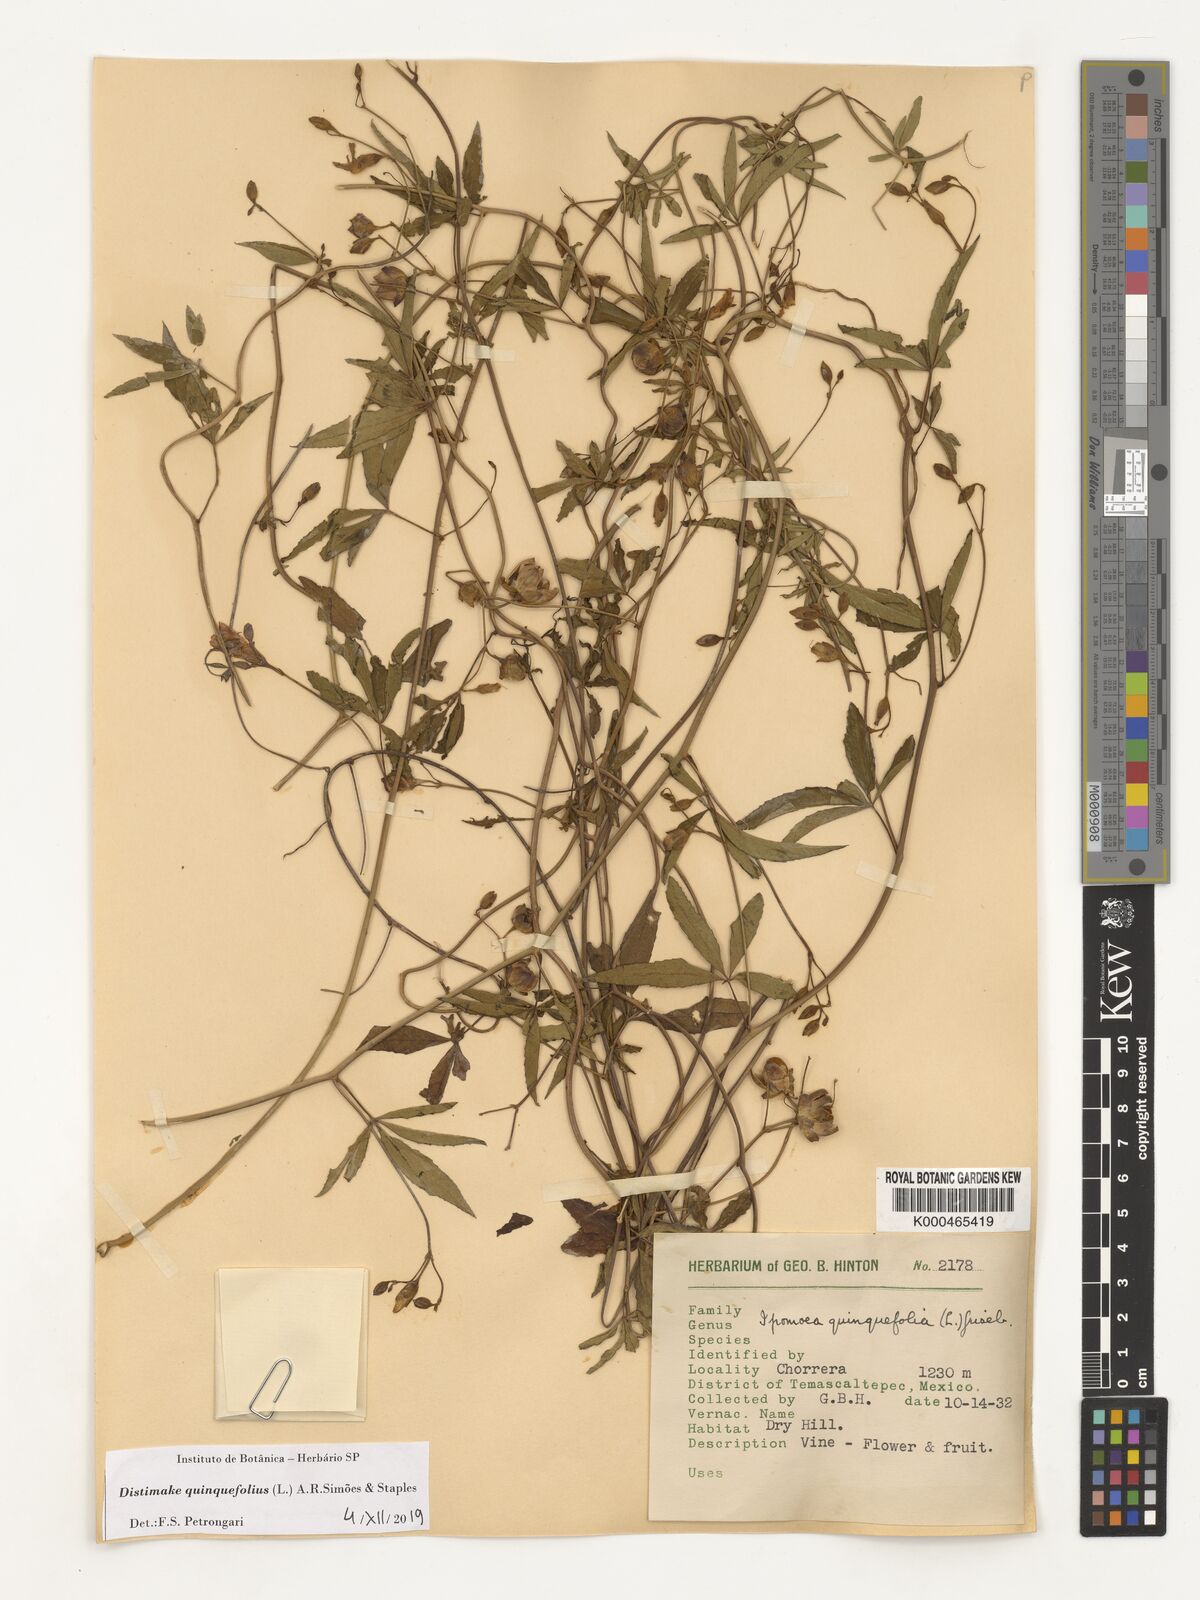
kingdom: Plantae
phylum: Tracheophyta
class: Magnoliopsida
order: Solanales
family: Convolvulaceae
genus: Distimake
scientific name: Distimake quinquefolius
